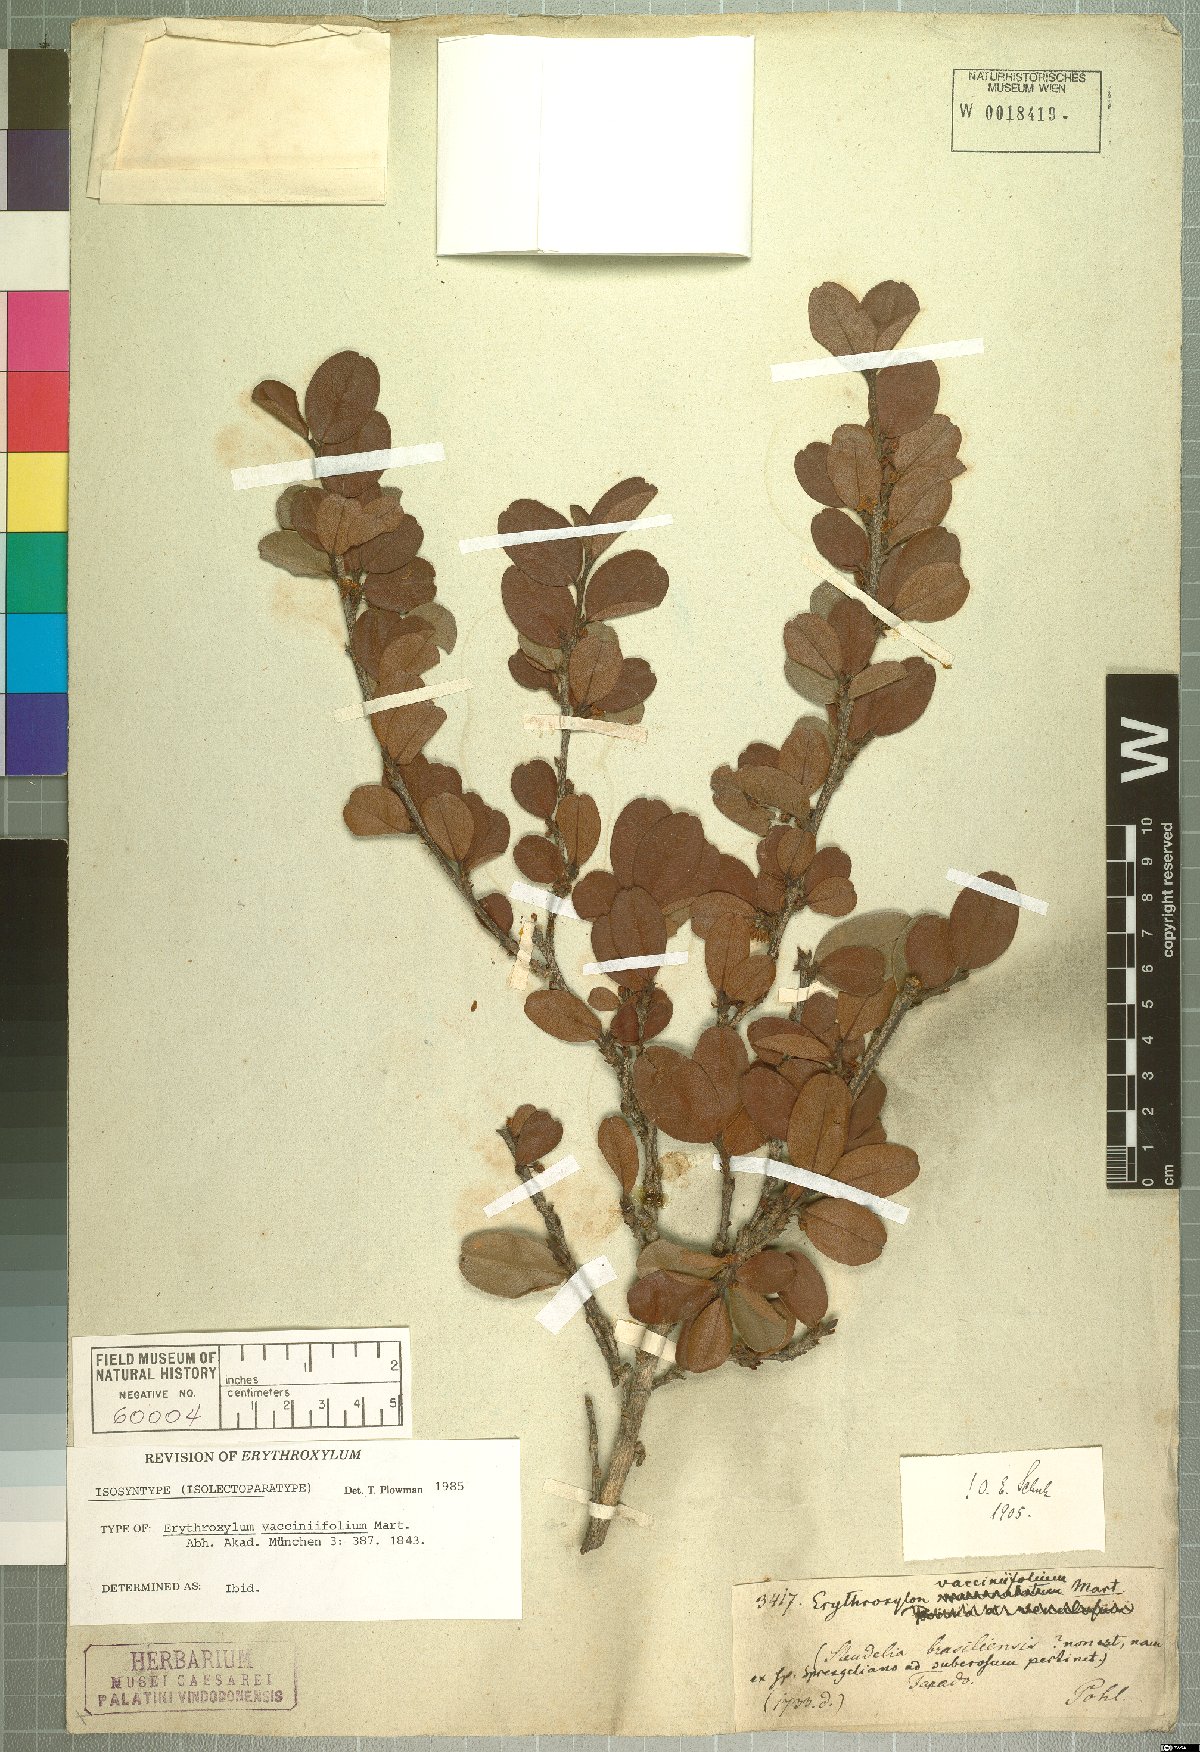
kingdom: Plantae
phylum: Tracheophyta
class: Magnoliopsida
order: Malpighiales
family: Erythroxylaceae
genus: Erythroxylum
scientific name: Erythroxylum vaccinifolium
